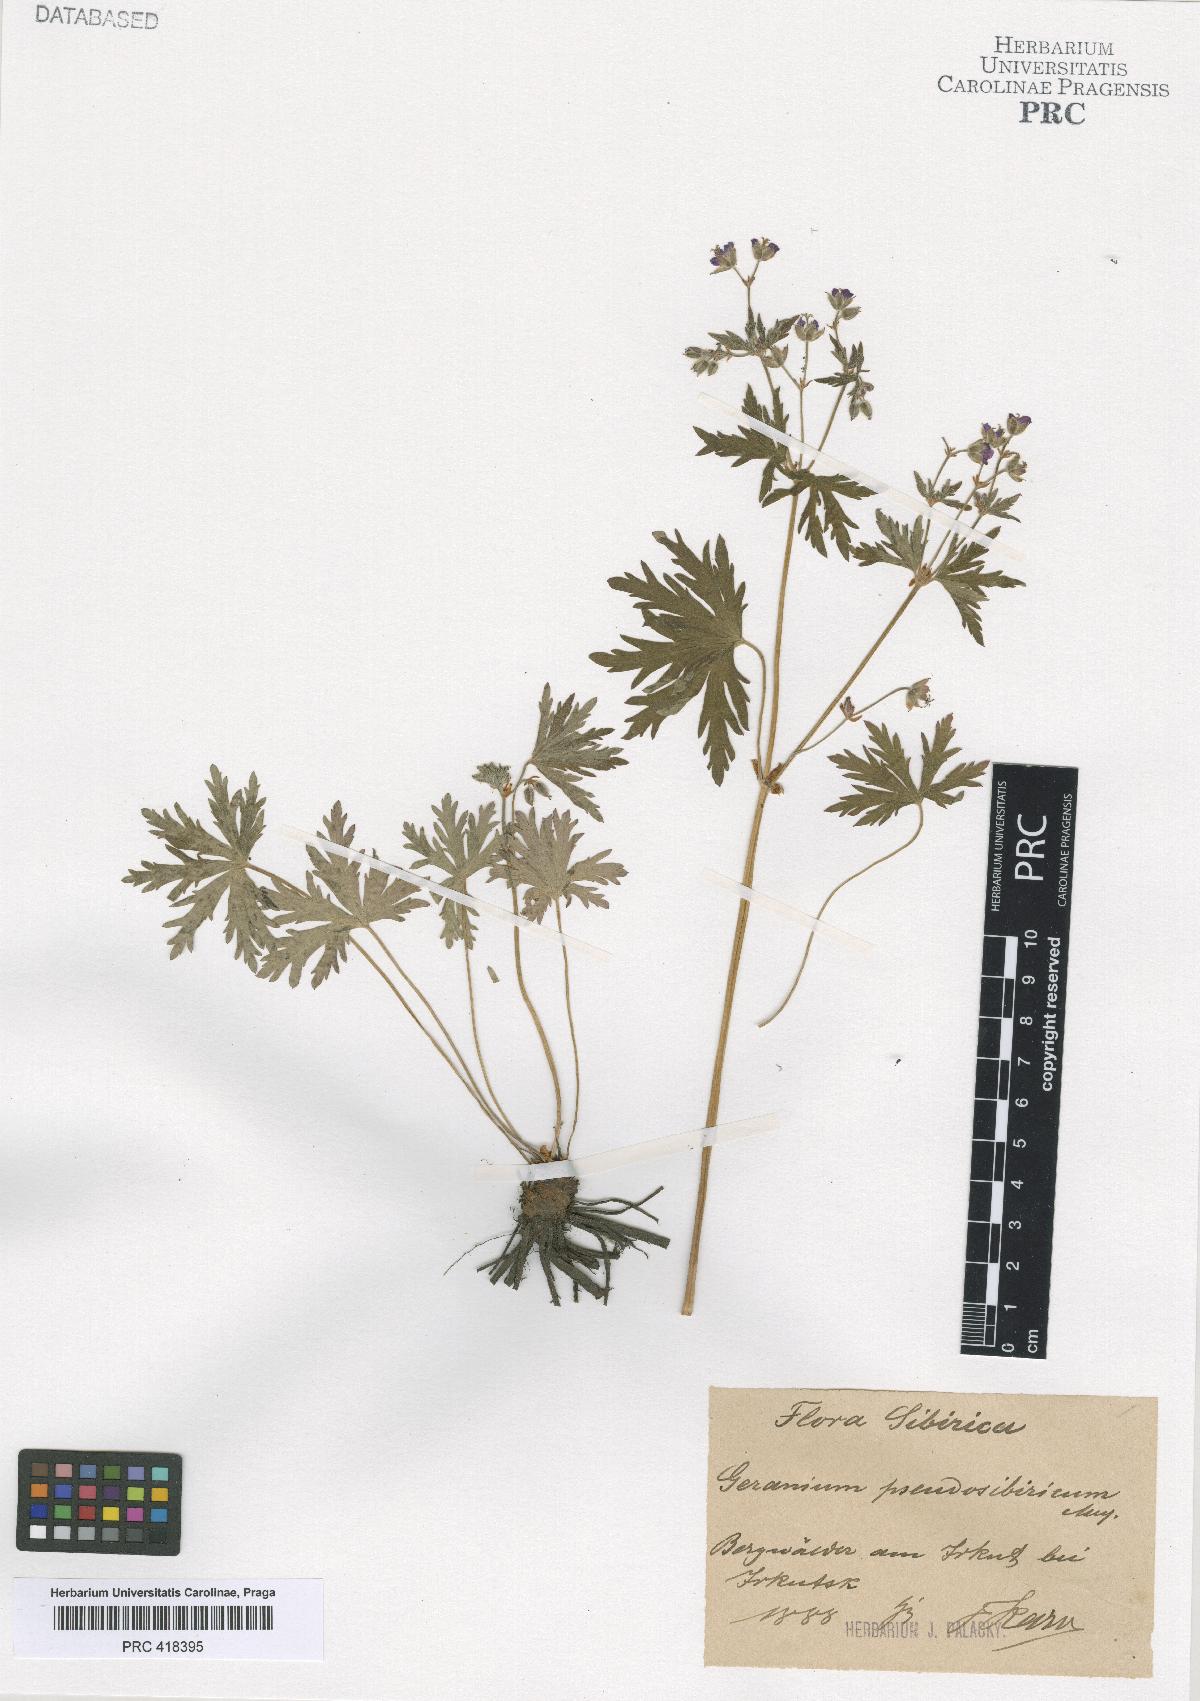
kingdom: Plantae
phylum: Tracheophyta
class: Magnoliopsida
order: Geraniales
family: Geraniaceae
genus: Geranium
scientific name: Geranium pseudosibiricum
